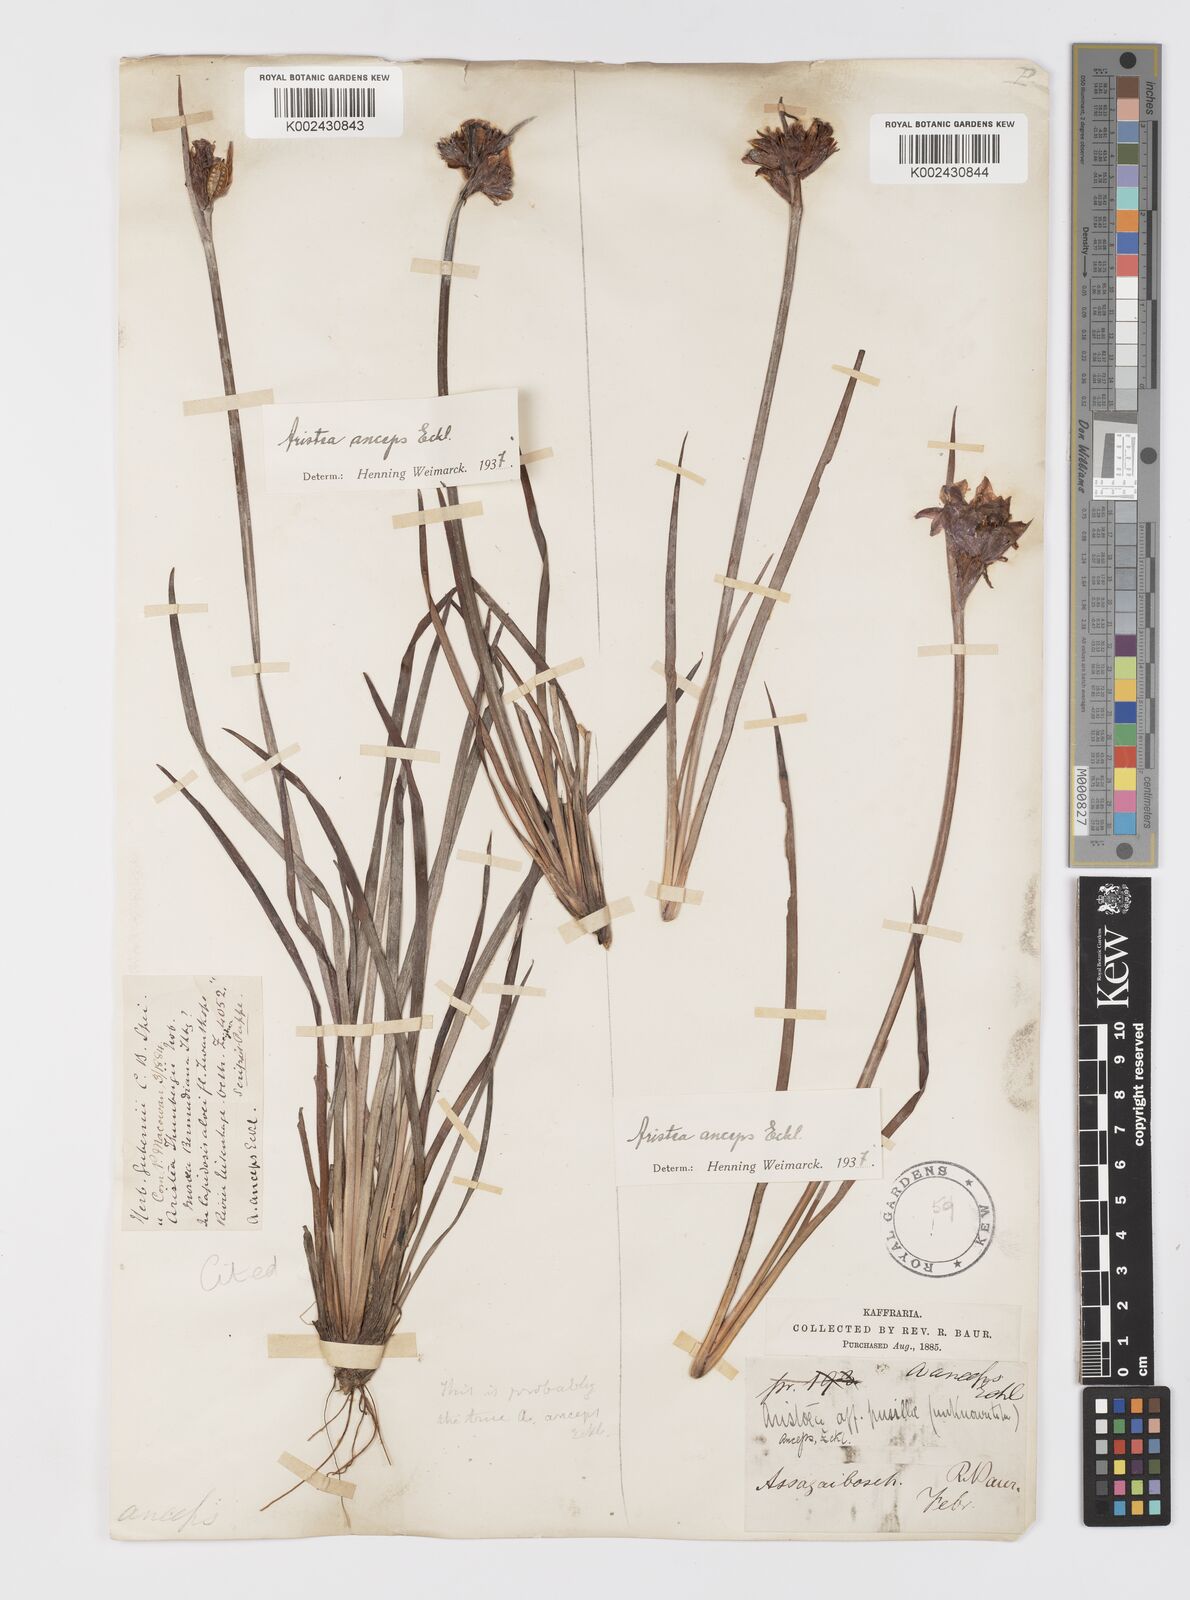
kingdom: Plantae
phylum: Tracheophyta
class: Liliopsida
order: Asparagales
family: Iridaceae
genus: Aristea
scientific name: Aristea anceps
